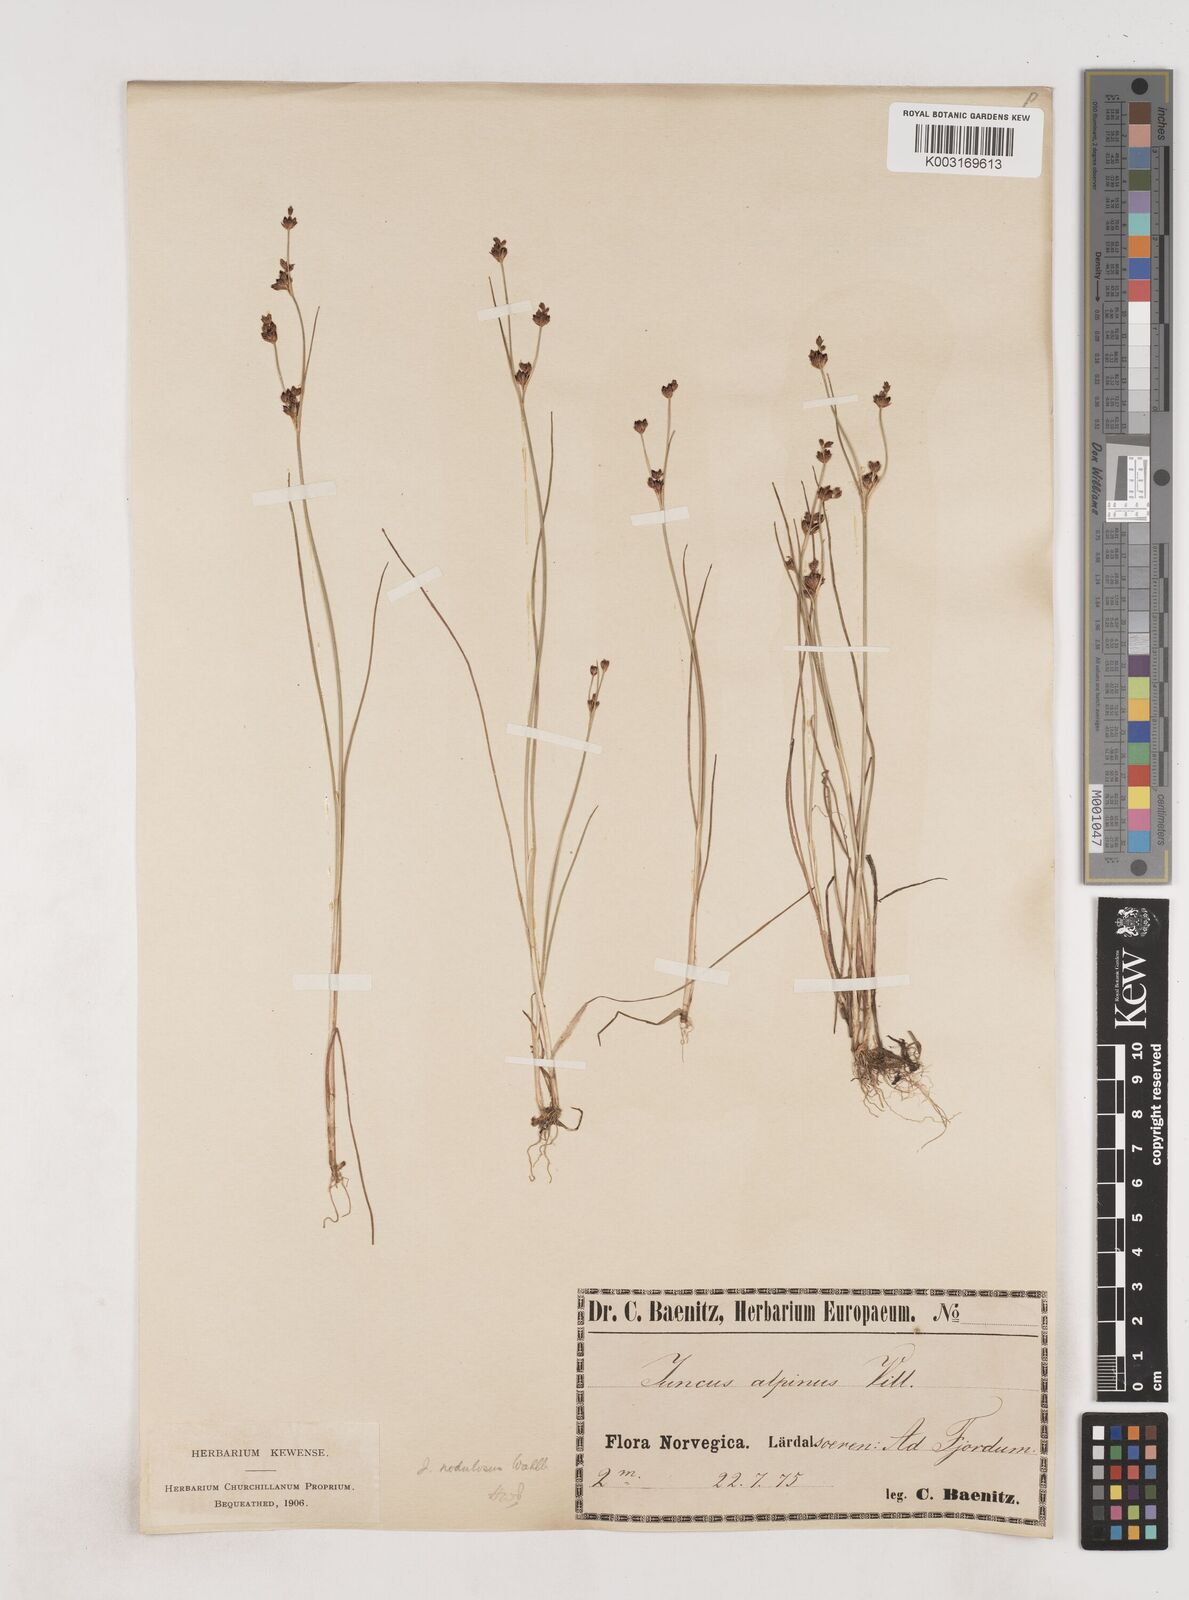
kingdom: Plantae
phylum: Tracheophyta
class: Liliopsida
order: Poales
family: Juncaceae
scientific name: Juncaceae
